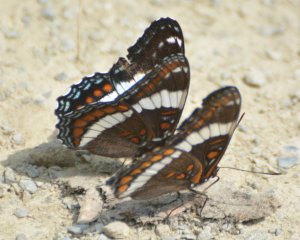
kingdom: Animalia
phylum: Arthropoda
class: Insecta
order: Lepidoptera
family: Nymphalidae
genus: Limenitis
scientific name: Limenitis arthemis
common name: Red-spotted Admiral
